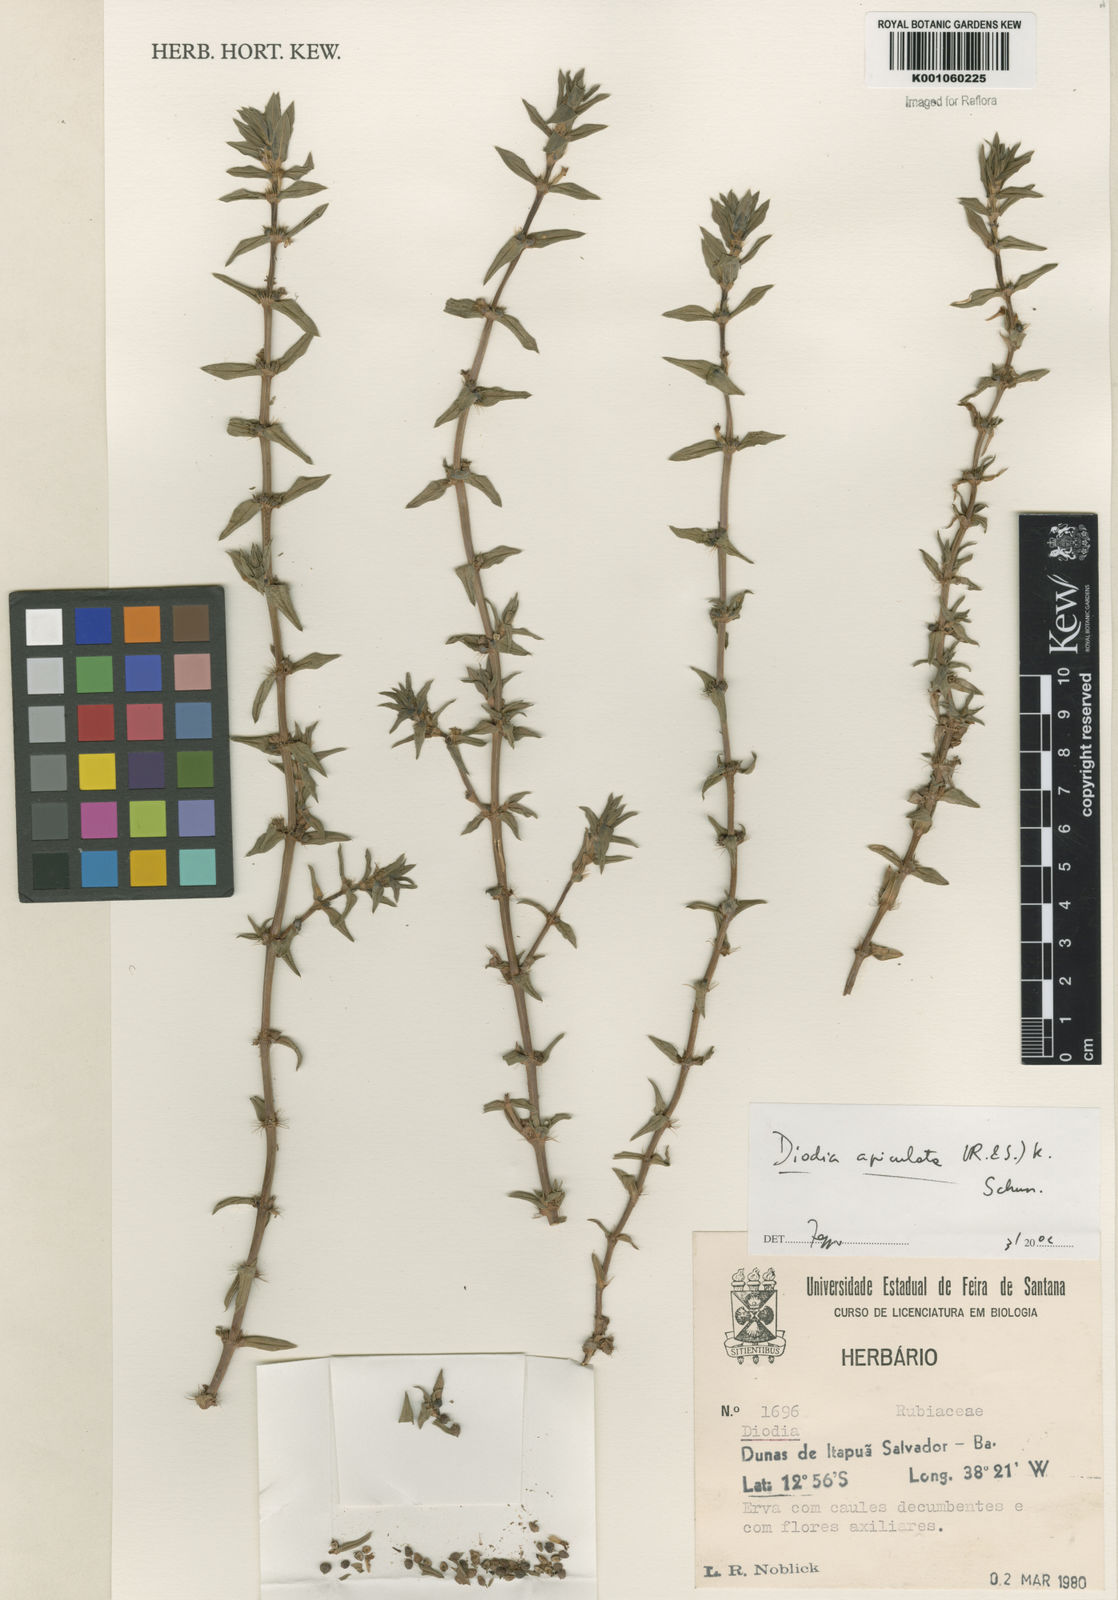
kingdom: Plantae
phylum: Tracheophyta
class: Magnoliopsida
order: Gentianales
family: Rubiaceae
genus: Hexasepalum
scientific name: Hexasepalum apiculatum
